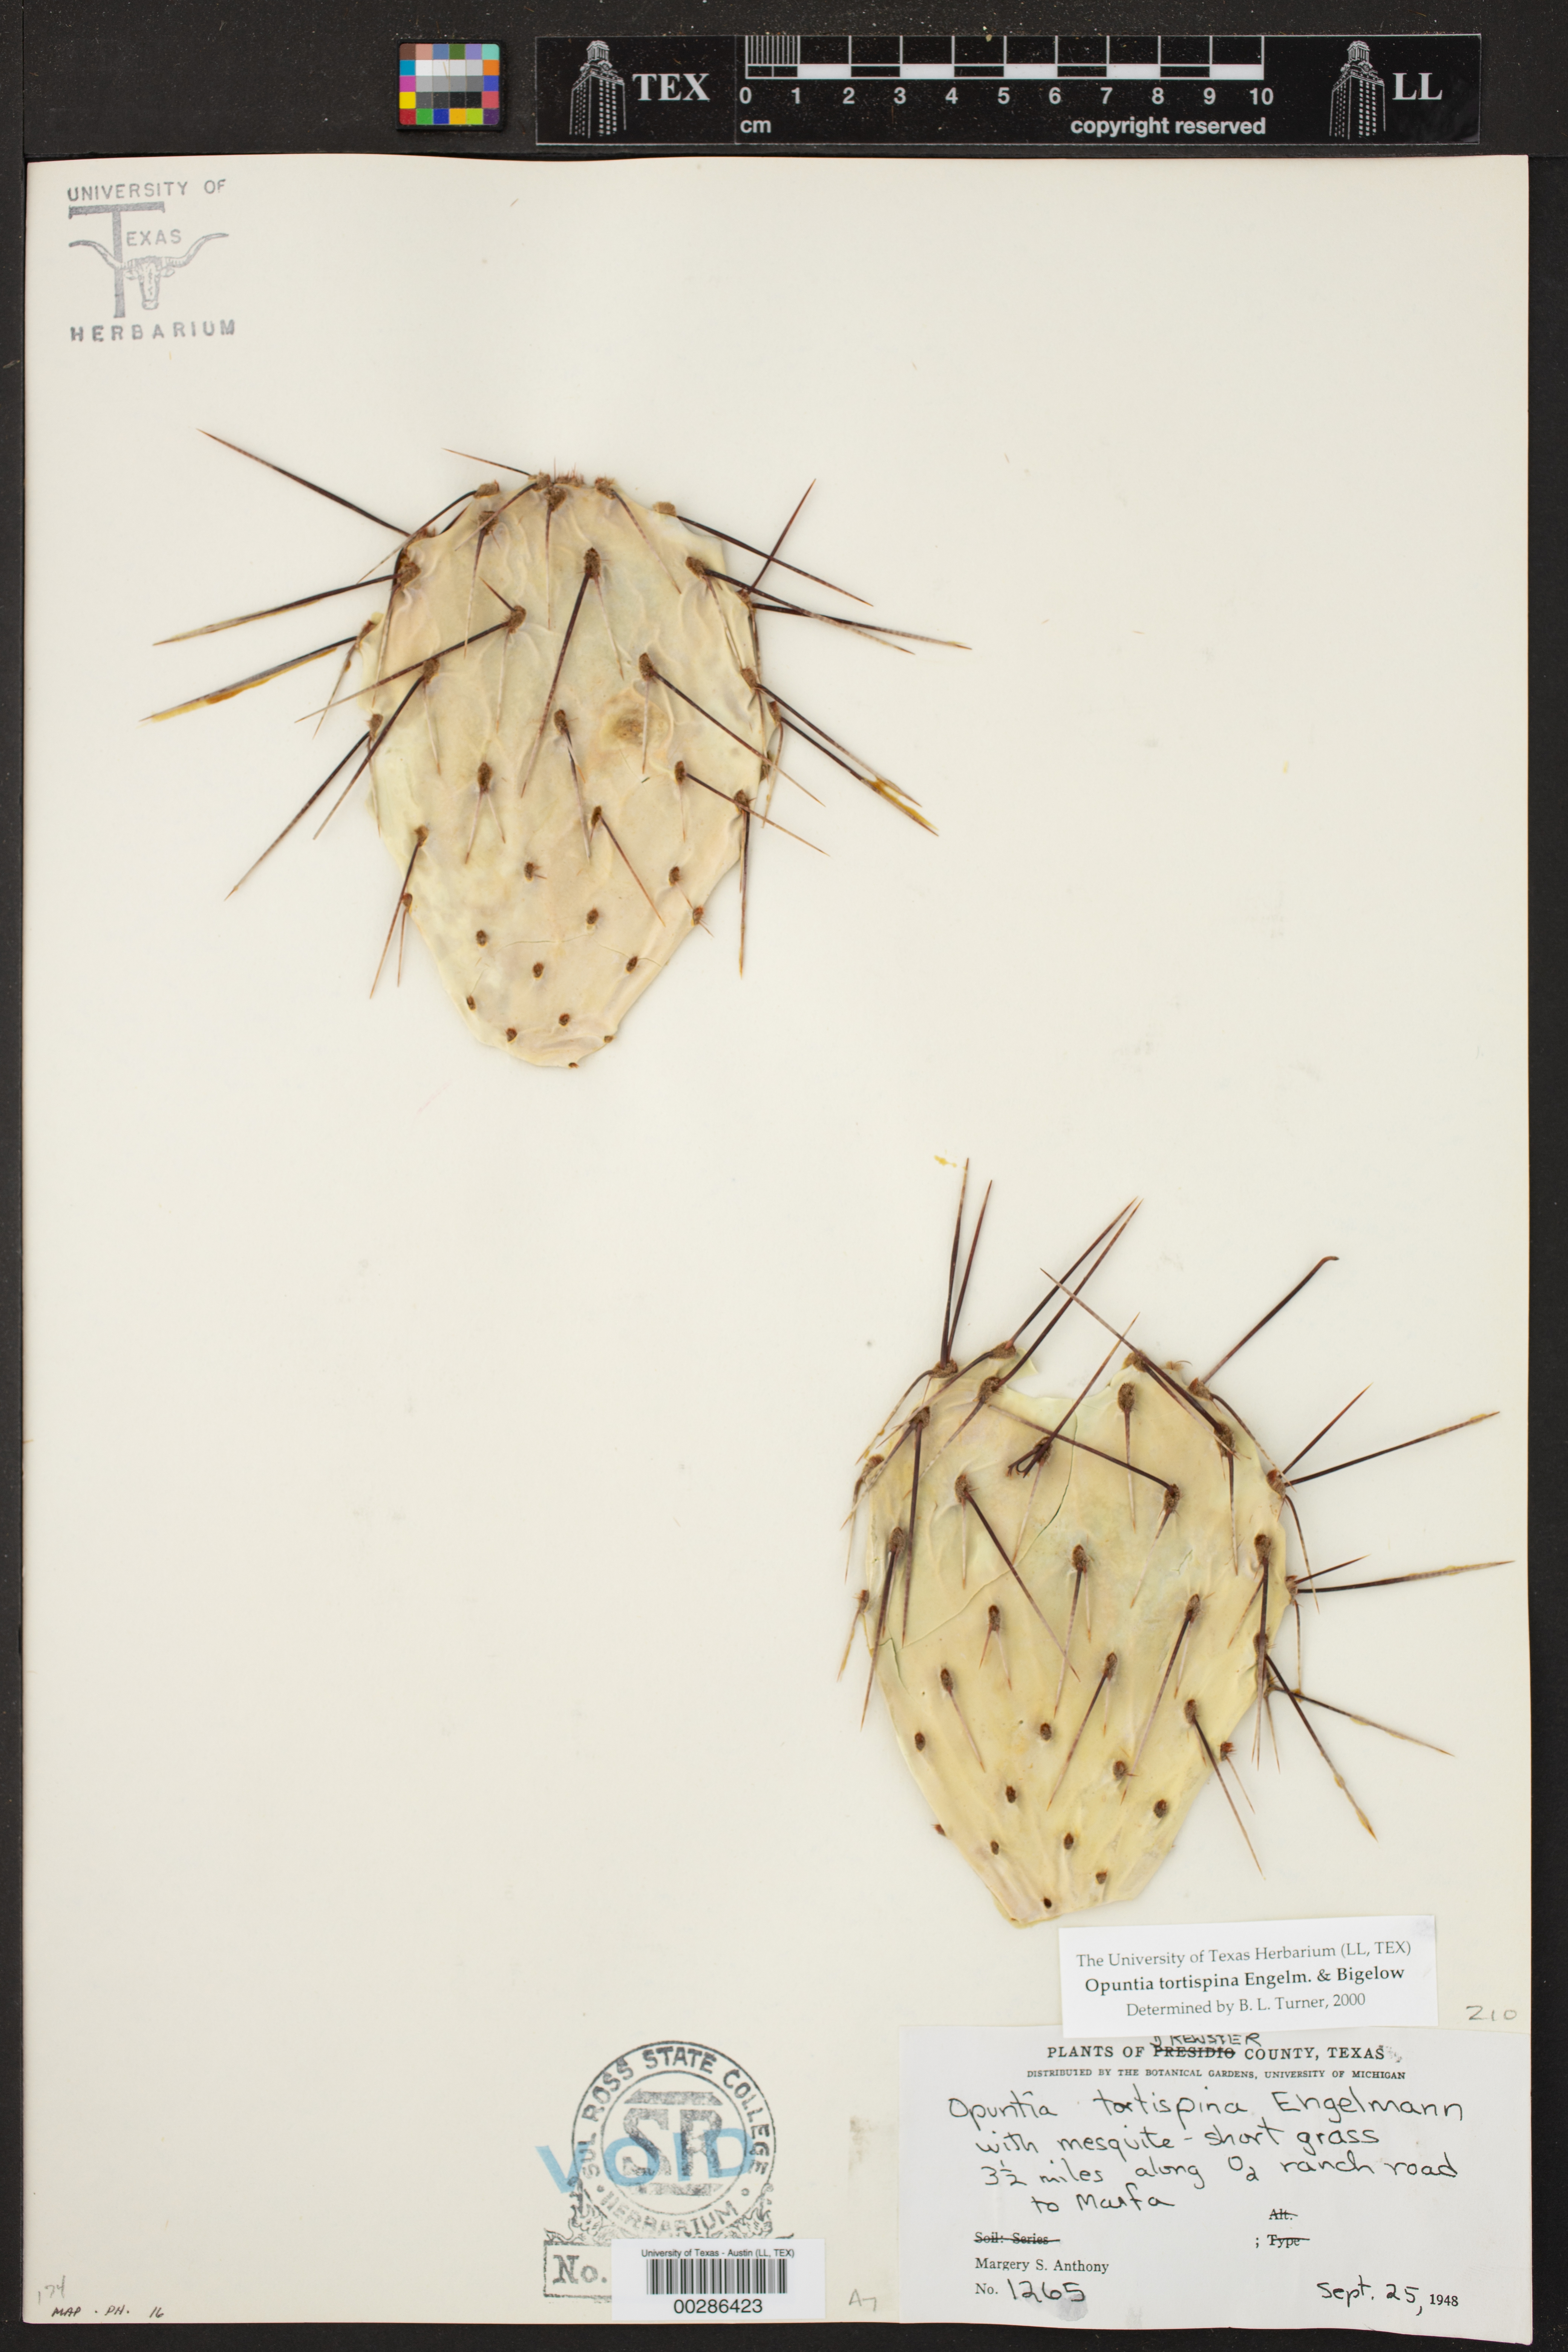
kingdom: Plantae
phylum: Tracheophyta
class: Magnoliopsida
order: Caryophyllales
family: Cactaceae
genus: Opuntia
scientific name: Opuntia macrorhiza
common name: Grassland pricklypear
